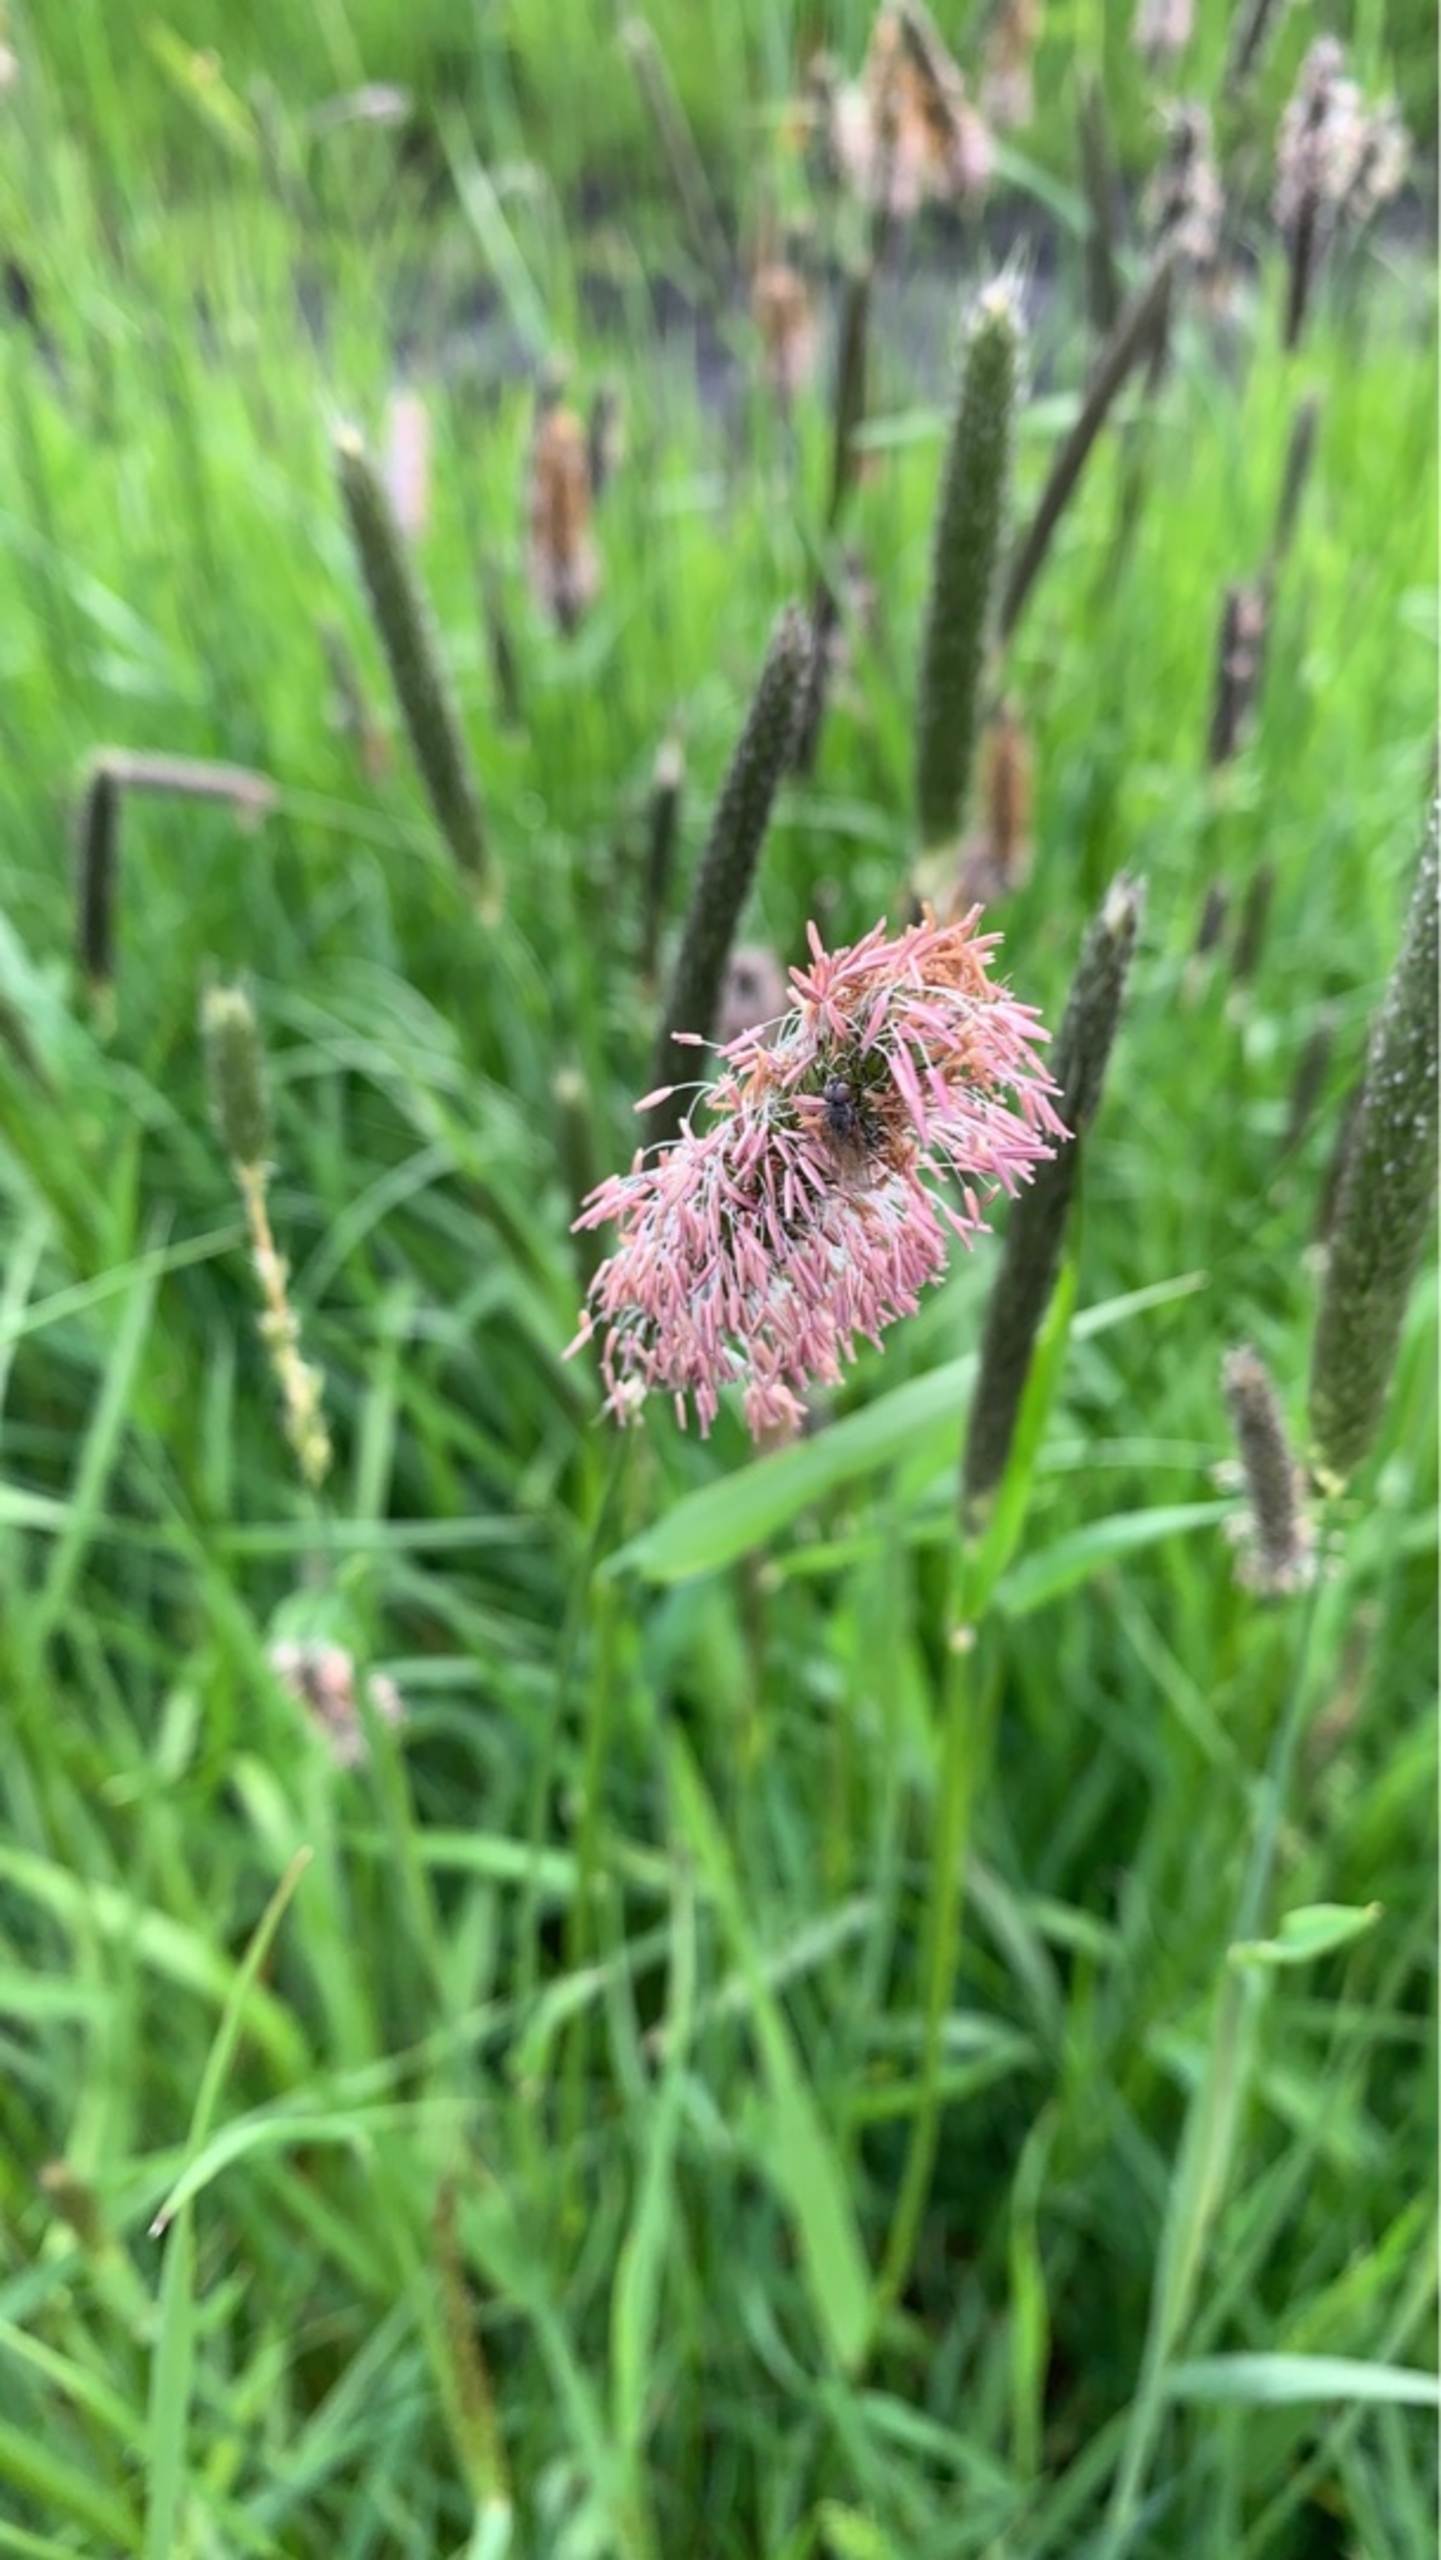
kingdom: Plantae
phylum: Tracheophyta
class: Liliopsida
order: Poales
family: Poaceae
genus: Alopecurus
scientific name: Alopecurus pratensis
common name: Eng-rævehale
